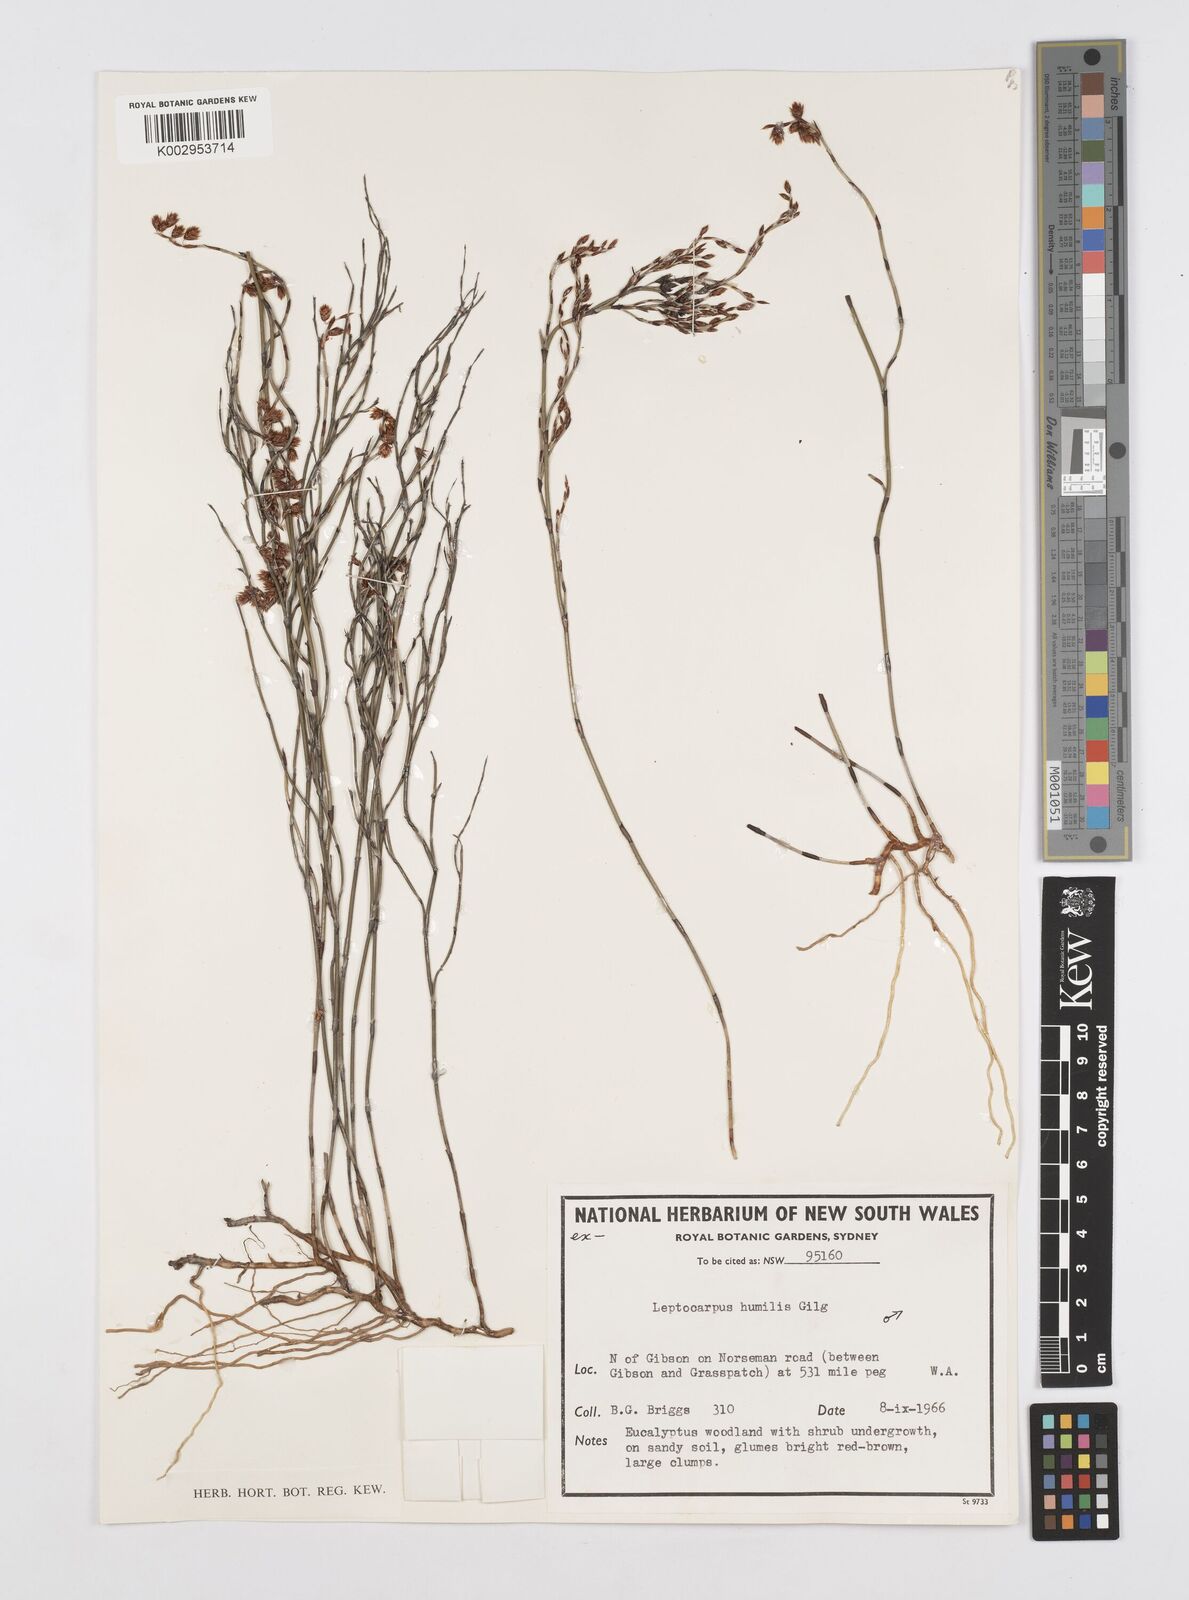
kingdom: Plantae
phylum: Tracheophyta
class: Liliopsida
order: Poales
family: Restionaceae
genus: Hypolaena
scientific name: Hypolaena humilis
